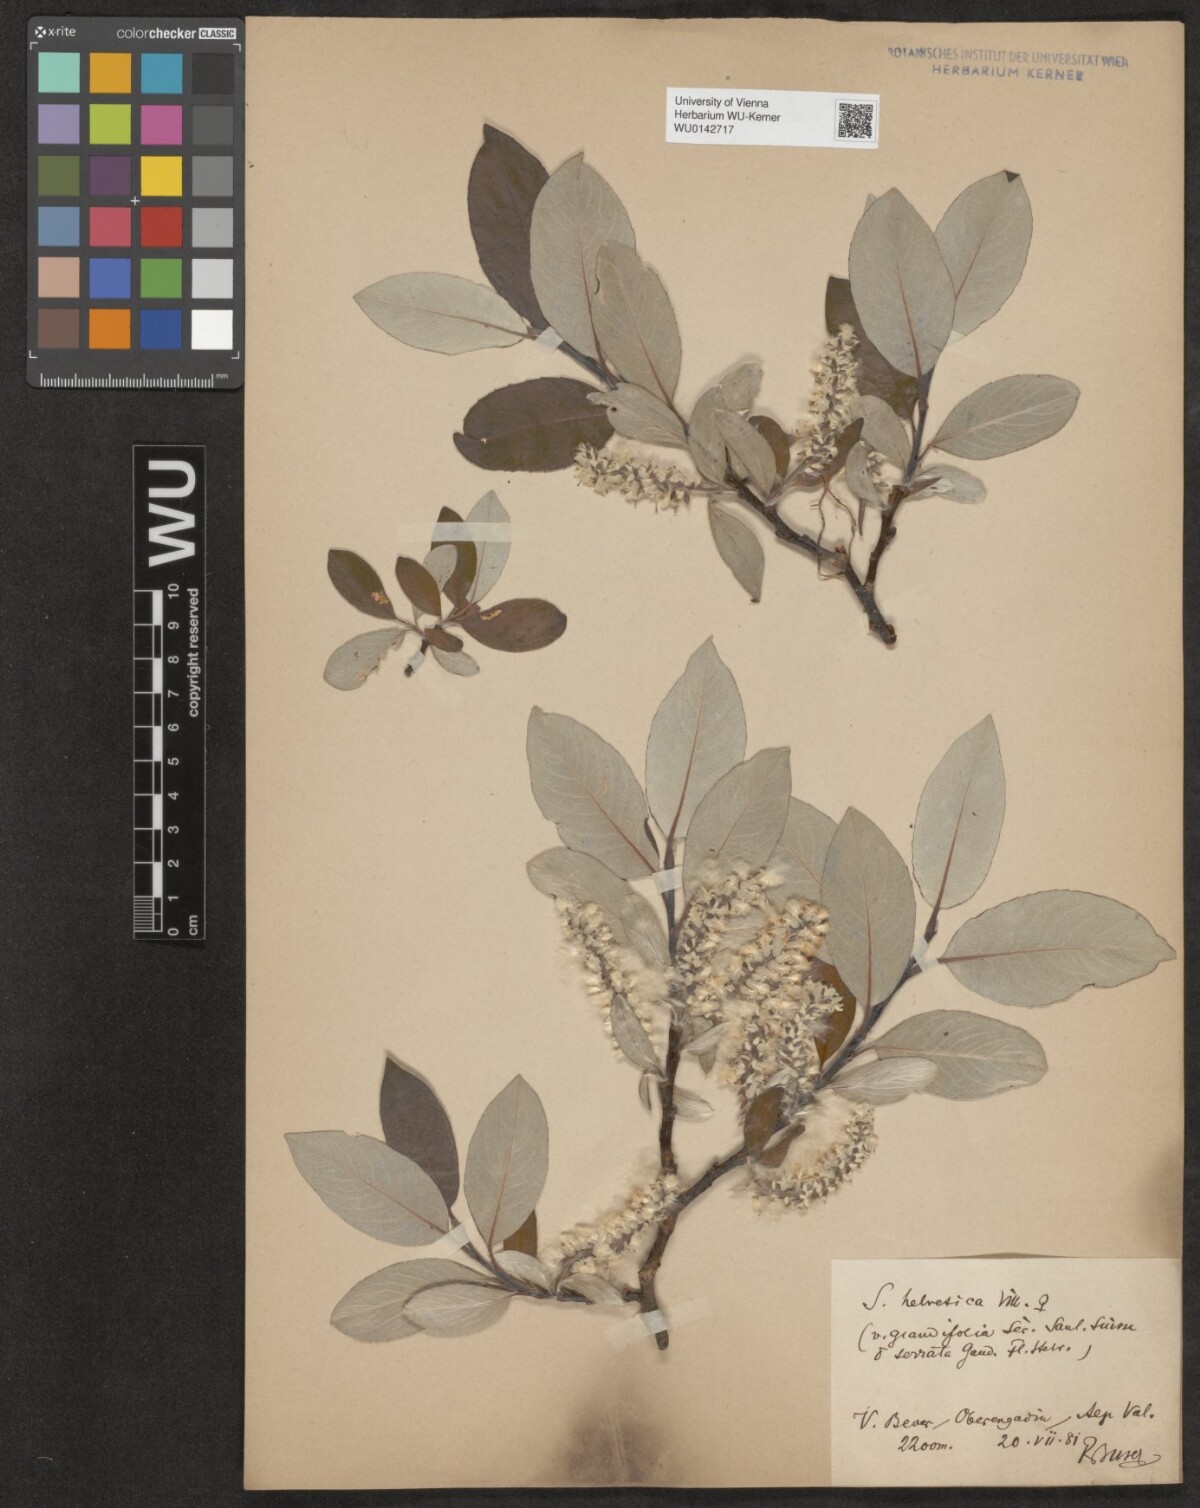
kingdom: Plantae
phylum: Tracheophyta
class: Magnoliopsida
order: Malpighiales
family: Salicaceae
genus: Salix
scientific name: Salix helvetica
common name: Swiss willow
